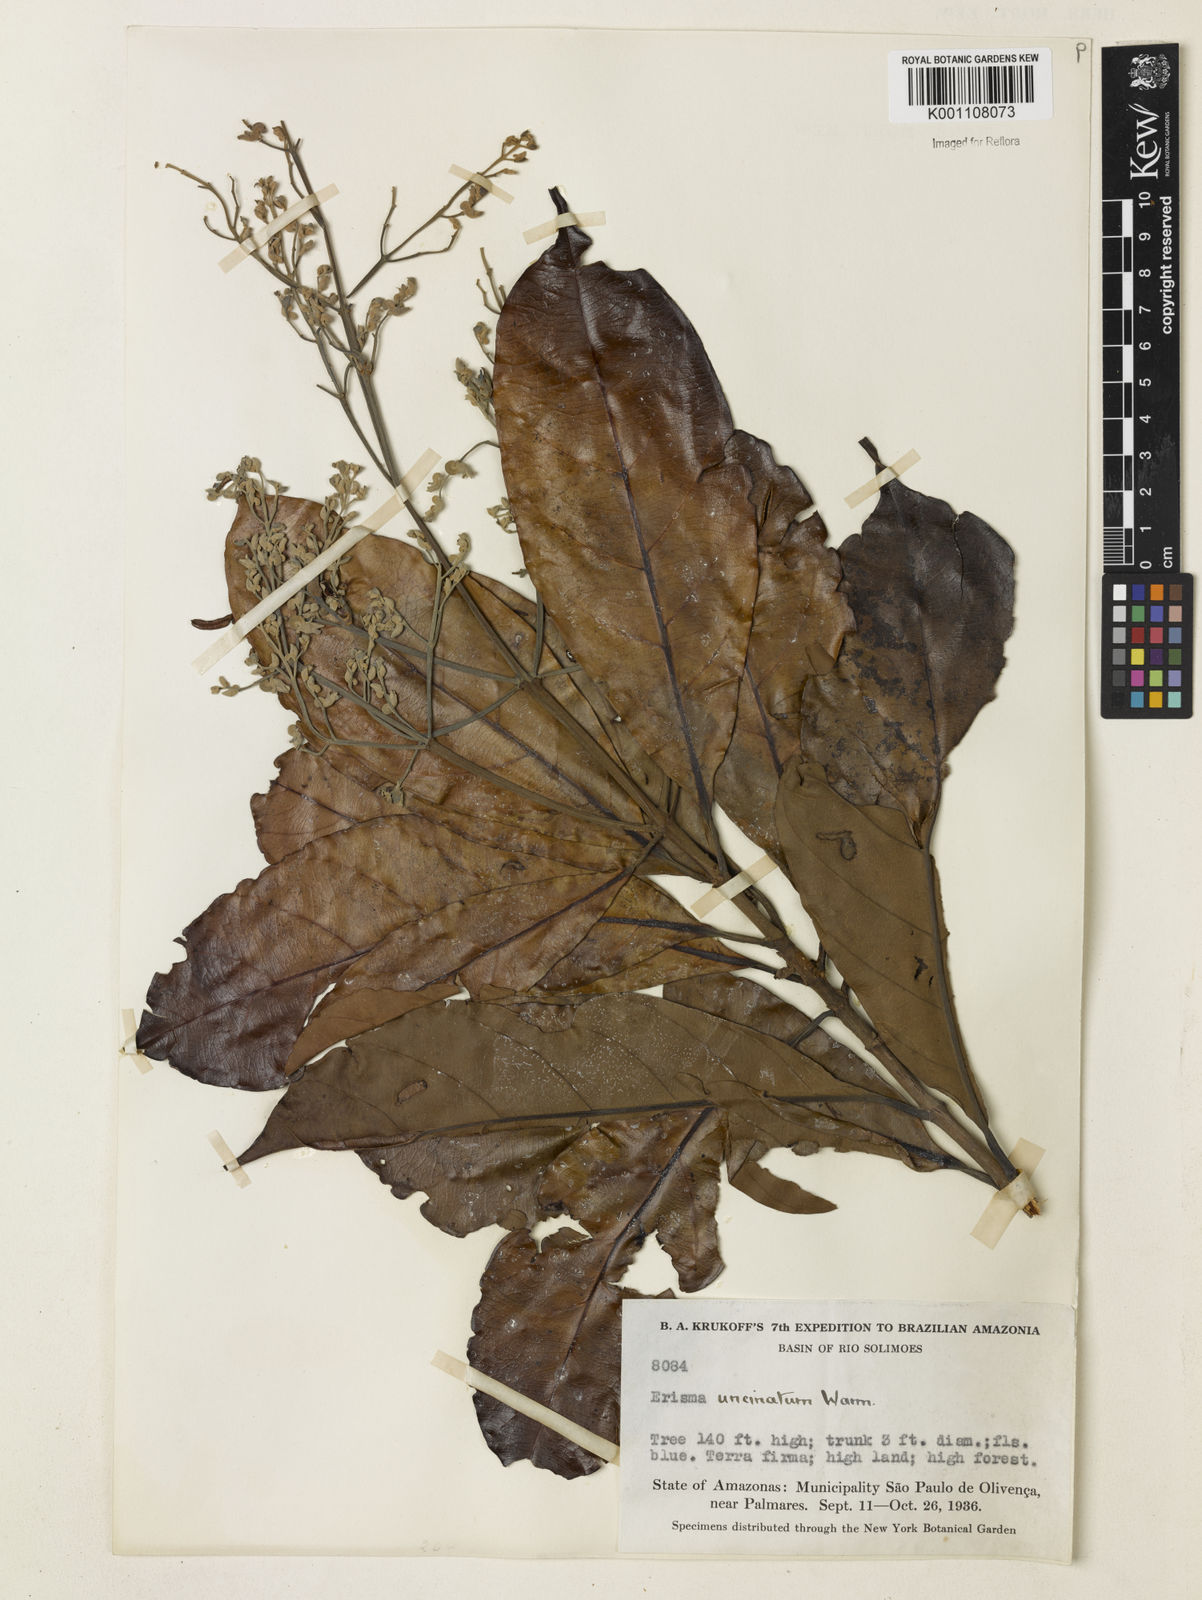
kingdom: Plantae
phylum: Tracheophyta
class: Magnoliopsida
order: Myrtales
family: Vochysiaceae
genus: Erisma
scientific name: Erisma uncinatum
